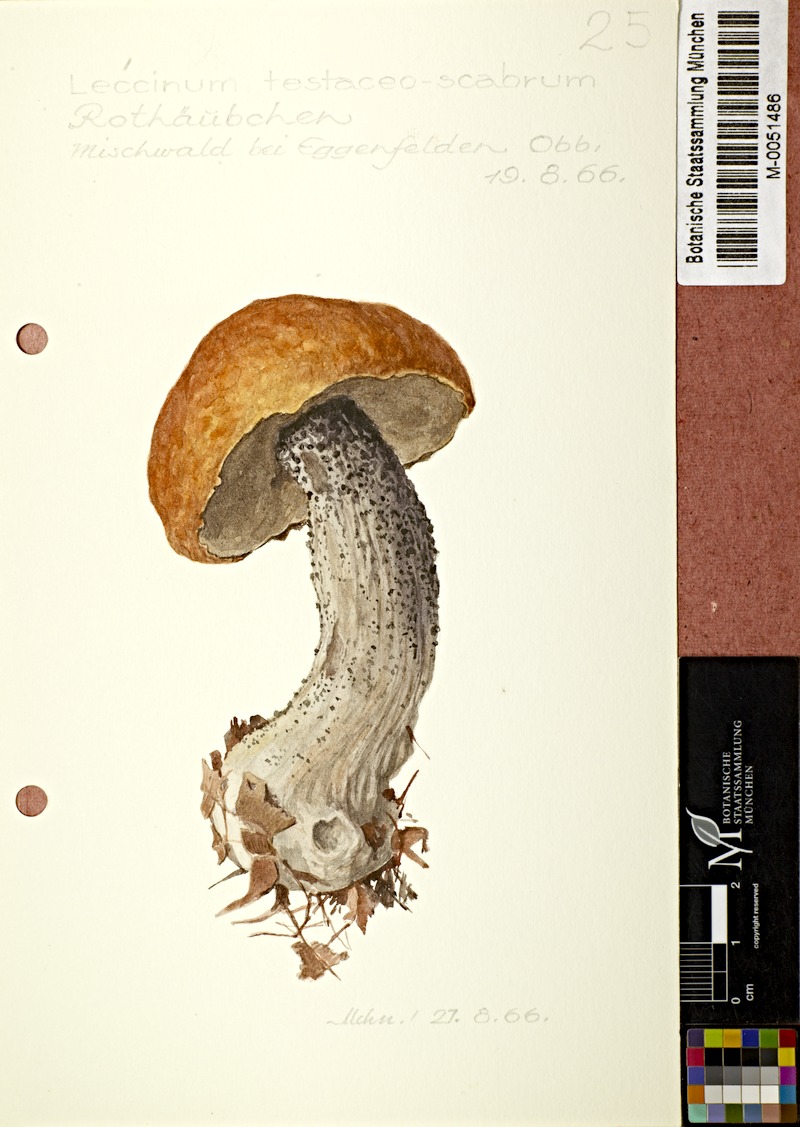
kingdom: Fungi
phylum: Basidiomycota
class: Agaricomycetes
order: Boletales
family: Boletaceae
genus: Leccinum
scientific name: Leccinum versipelle
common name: Orange birch bolete
